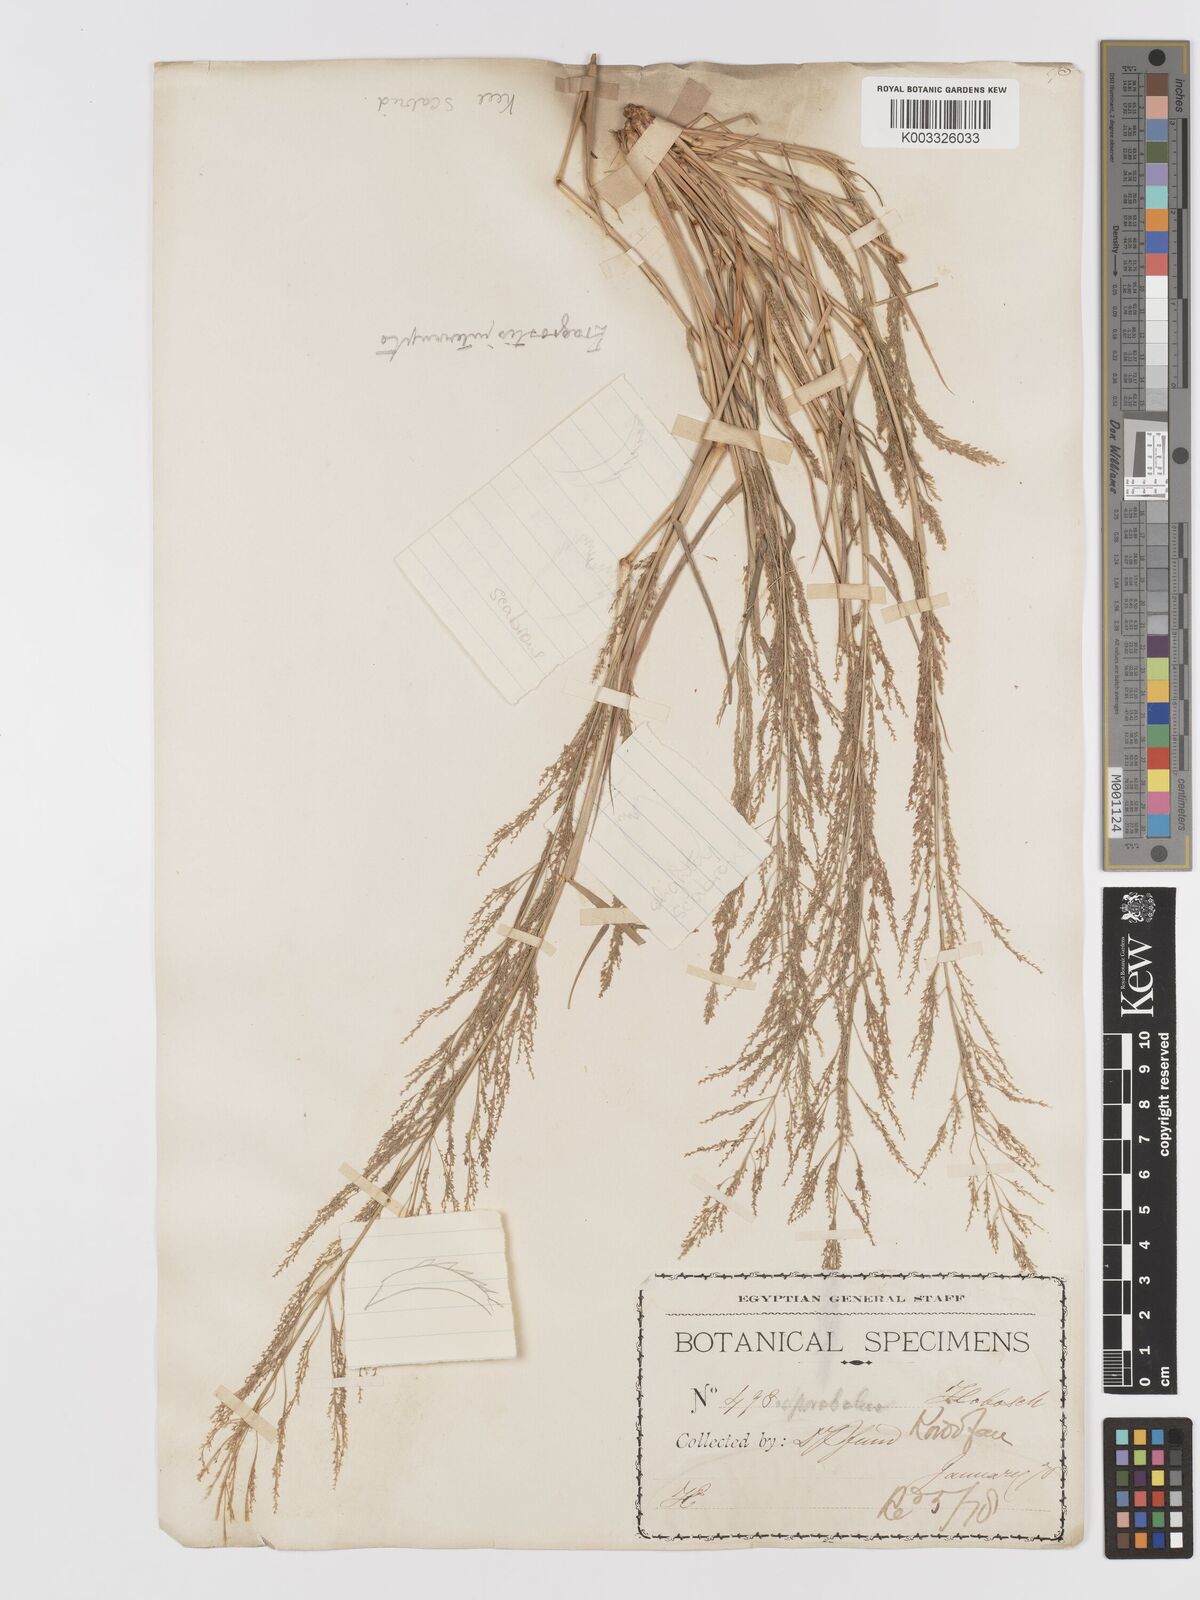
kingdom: Plantae
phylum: Tracheophyta
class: Liliopsida
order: Poales
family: Poaceae
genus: Eragrostis
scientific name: Eragrostis japonica
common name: Pond lovegrass
